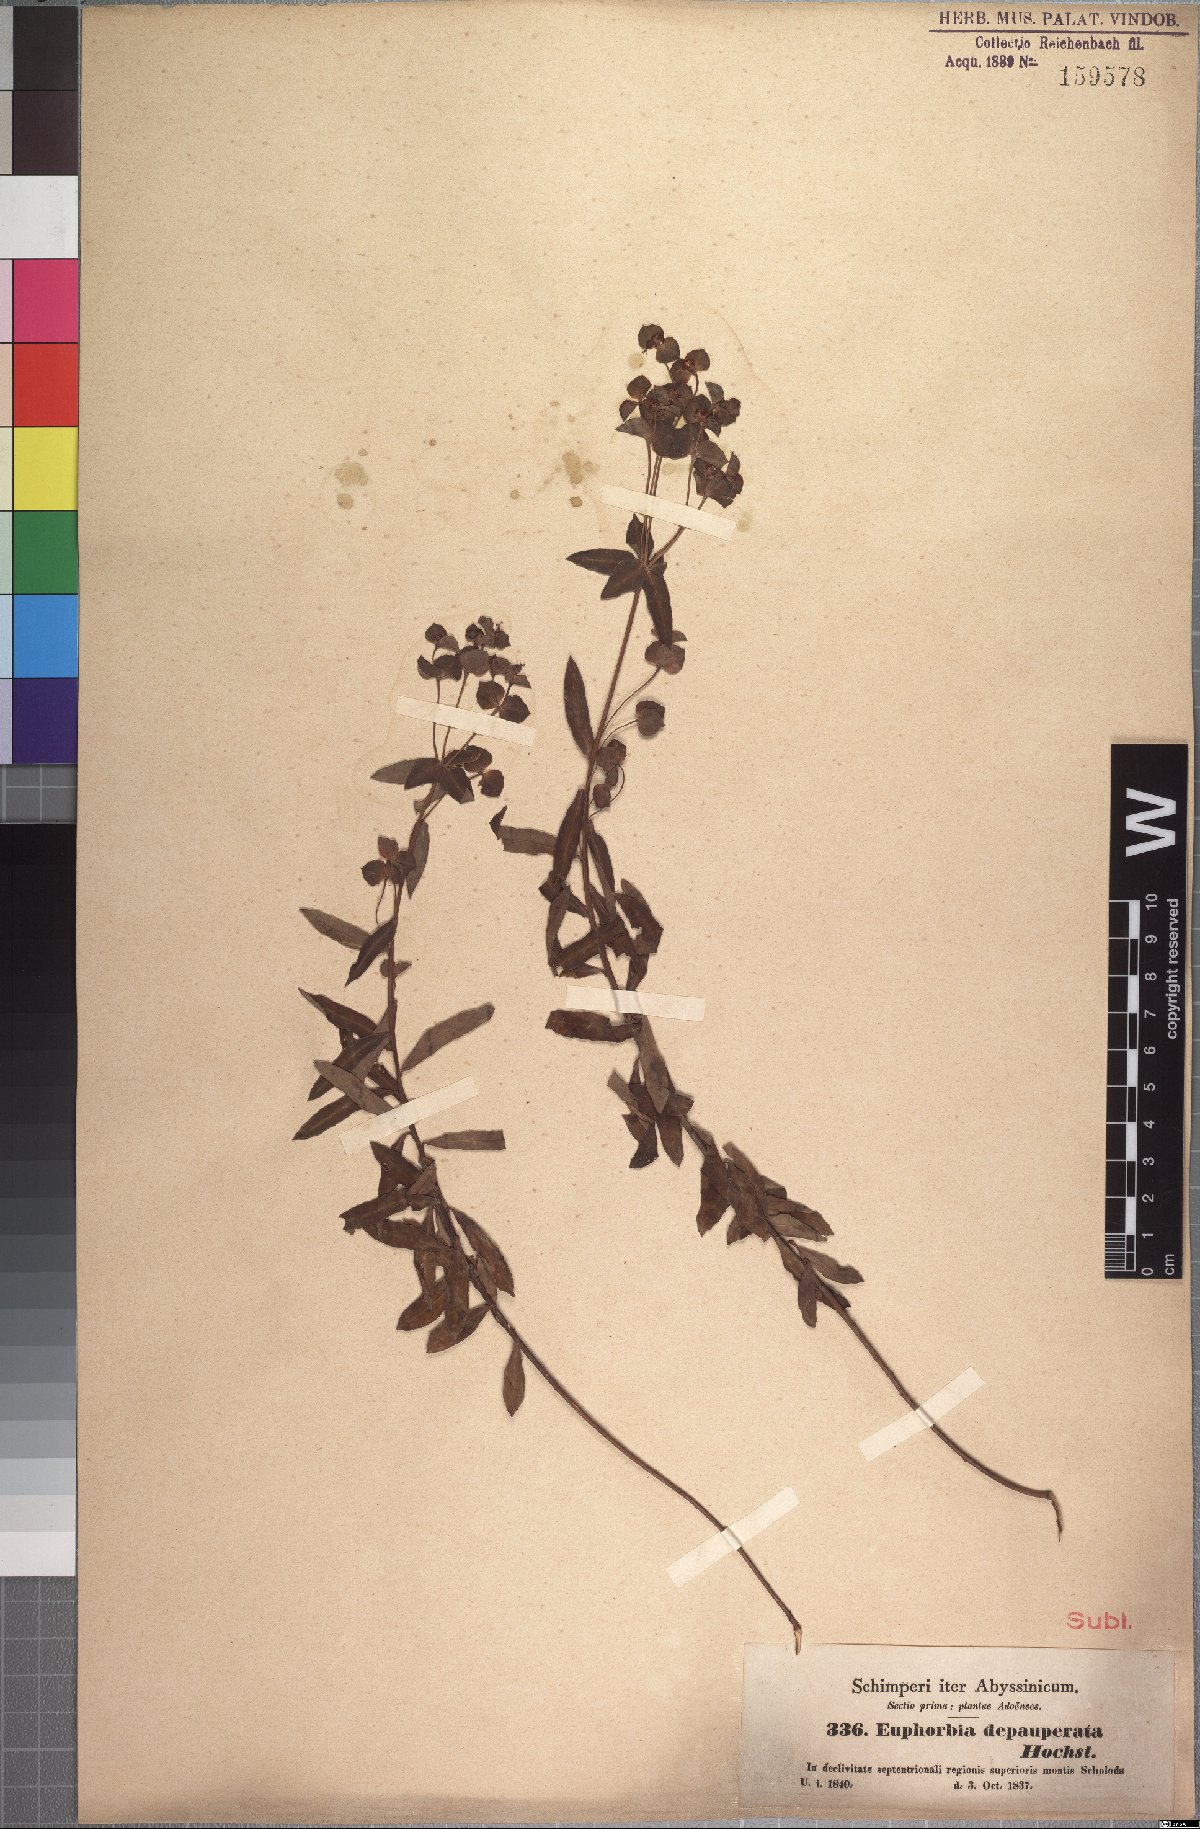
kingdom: Plantae
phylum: Tracheophyta
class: Magnoliopsida
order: Malpighiales
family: Euphorbiaceae
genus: Euphorbia
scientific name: Euphorbia depauperata
